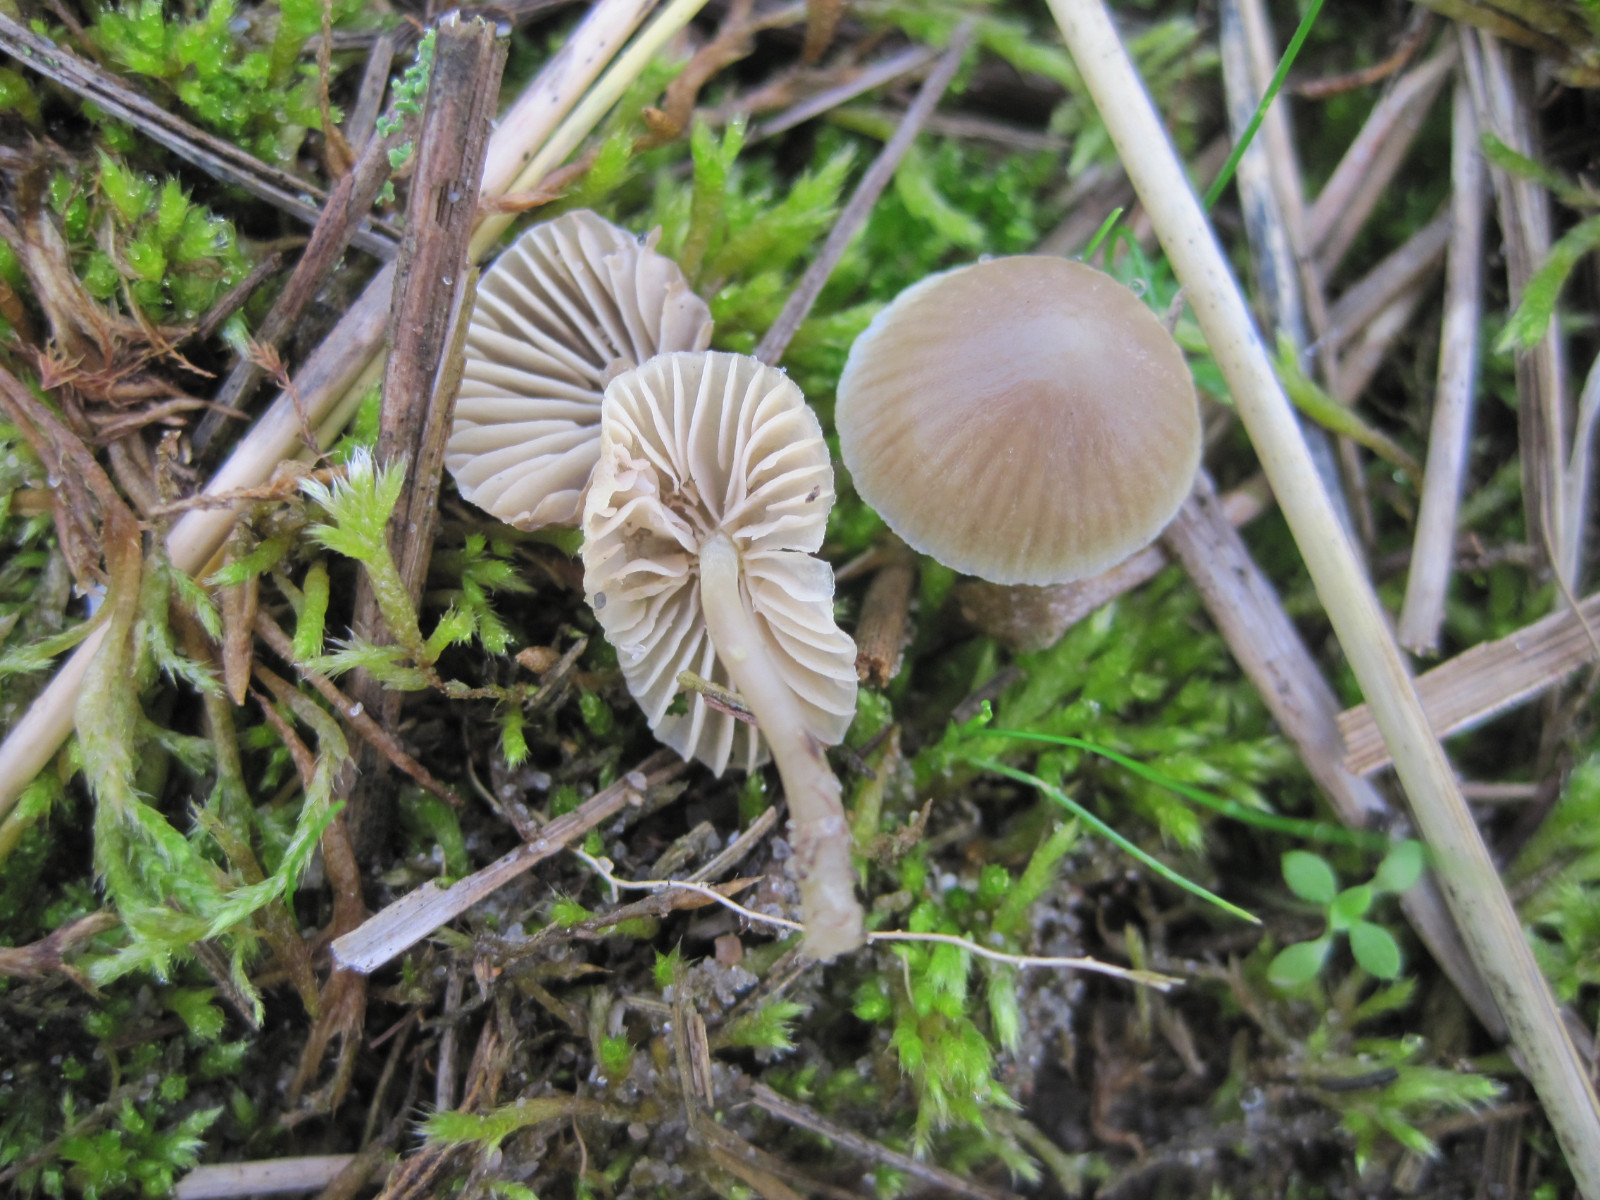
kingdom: Fungi
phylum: Basidiomycota
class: Agaricomycetes
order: Agaricales
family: Mycenaceae
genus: Mycena
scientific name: Mycena chlorantha
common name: klit-huesvamp
